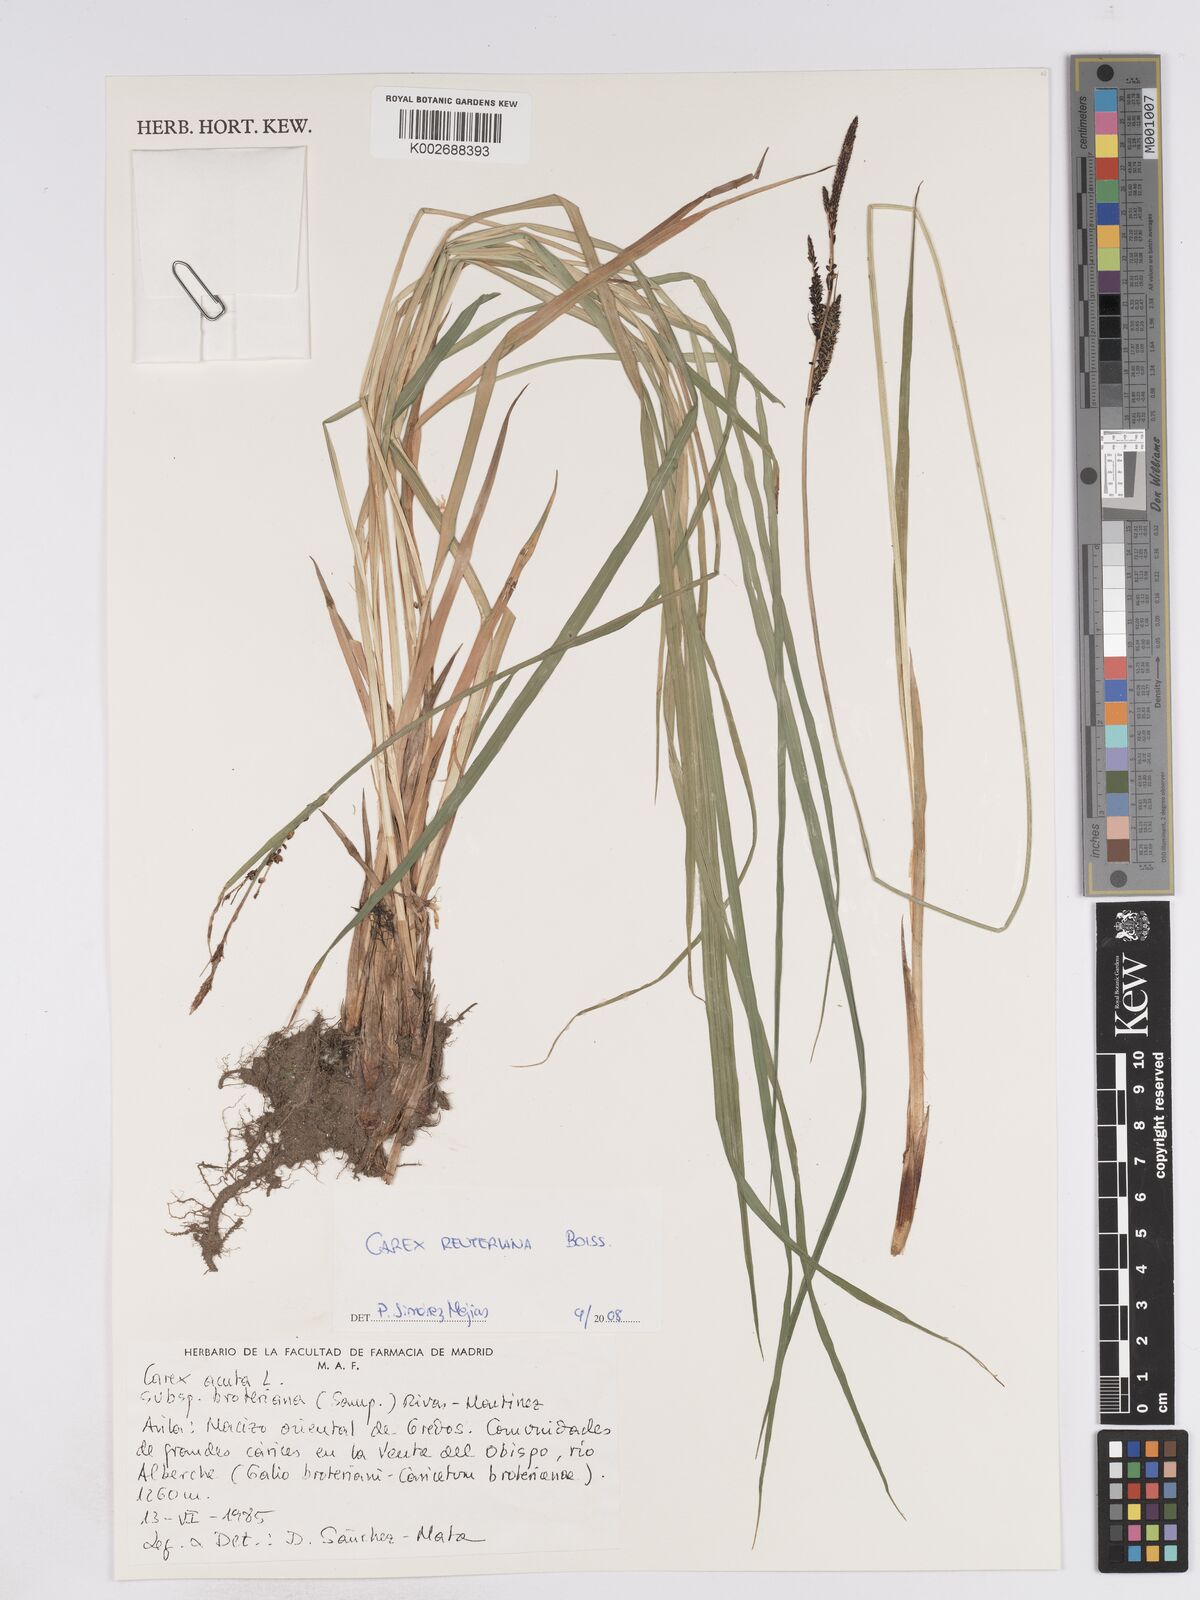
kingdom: Plantae
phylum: Tracheophyta
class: Liliopsida
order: Poales
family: Cyperaceae
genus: Carex
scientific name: Carex reuteriana
